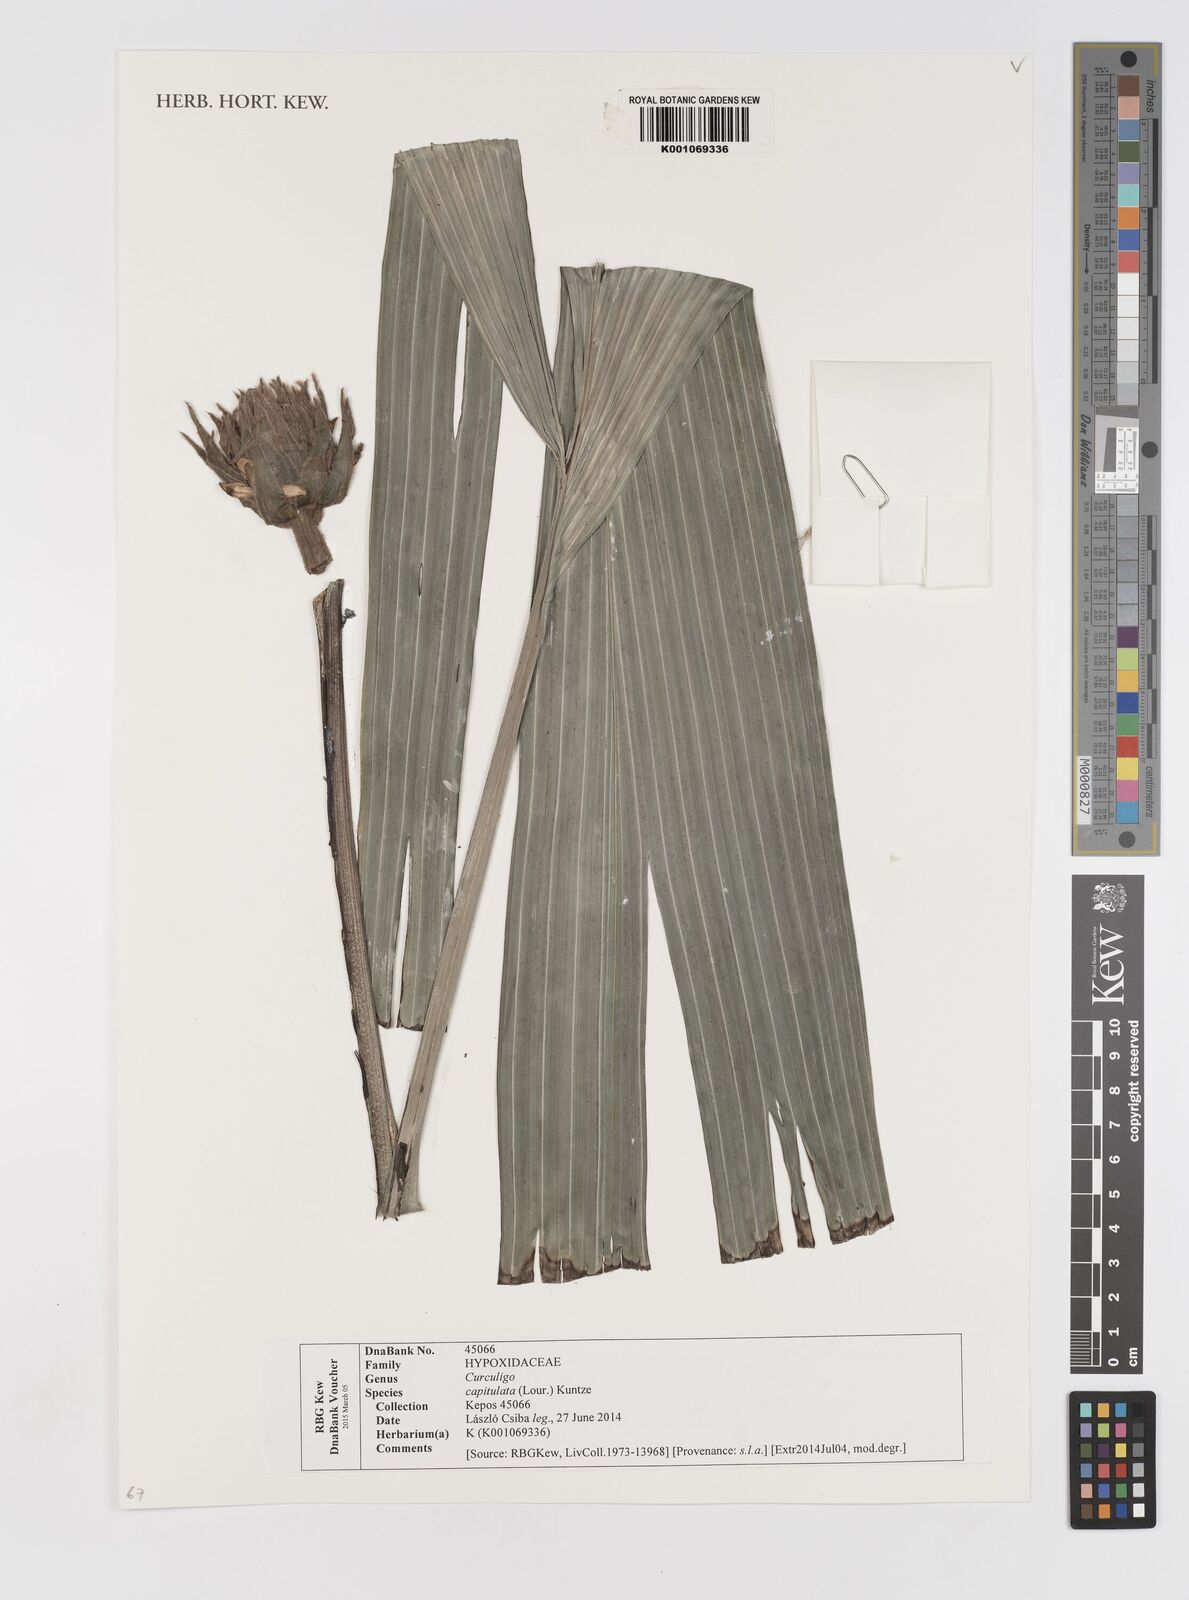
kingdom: Plantae
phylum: Tracheophyta
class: Liliopsida
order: Asparagales
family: Hypoxidaceae
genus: Curculigo
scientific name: Curculigo capitulata
